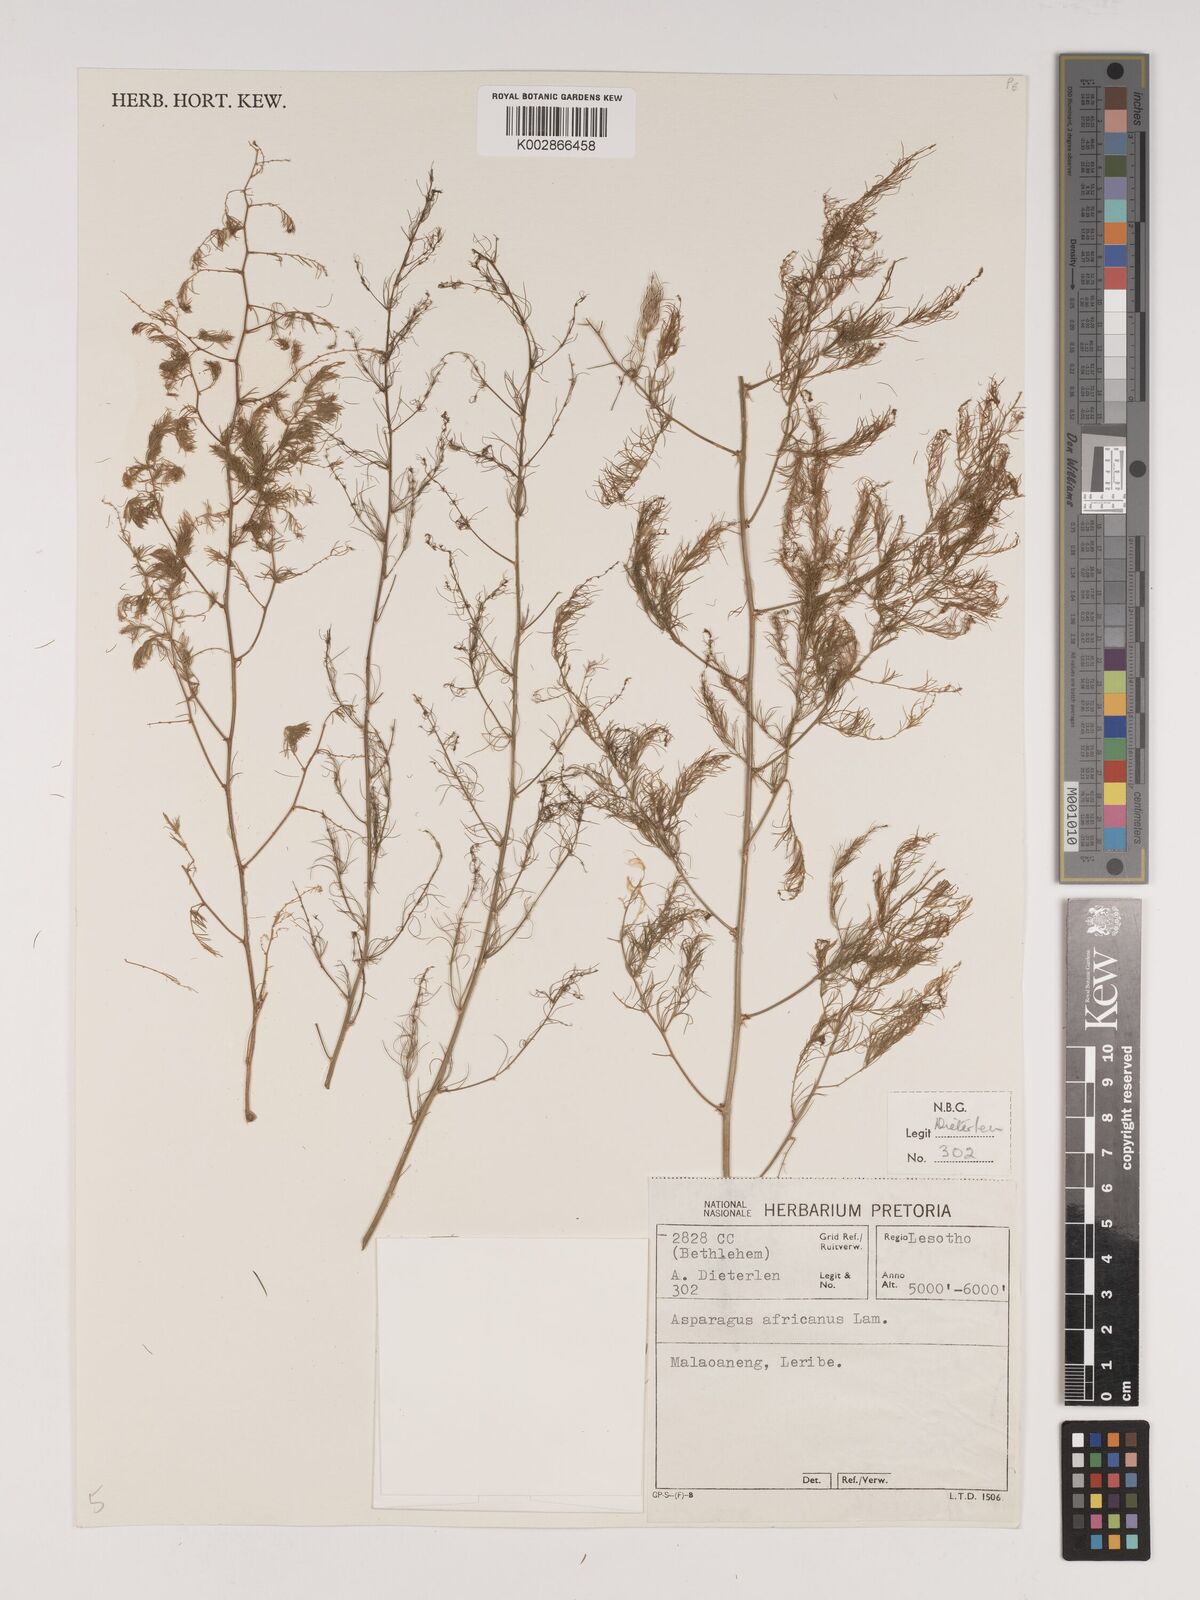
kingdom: Plantae
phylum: Tracheophyta
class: Liliopsida
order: Asparagales
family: Asparagaceae
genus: Asparagus
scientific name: Asparagus africanus
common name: Asparagus-fern
